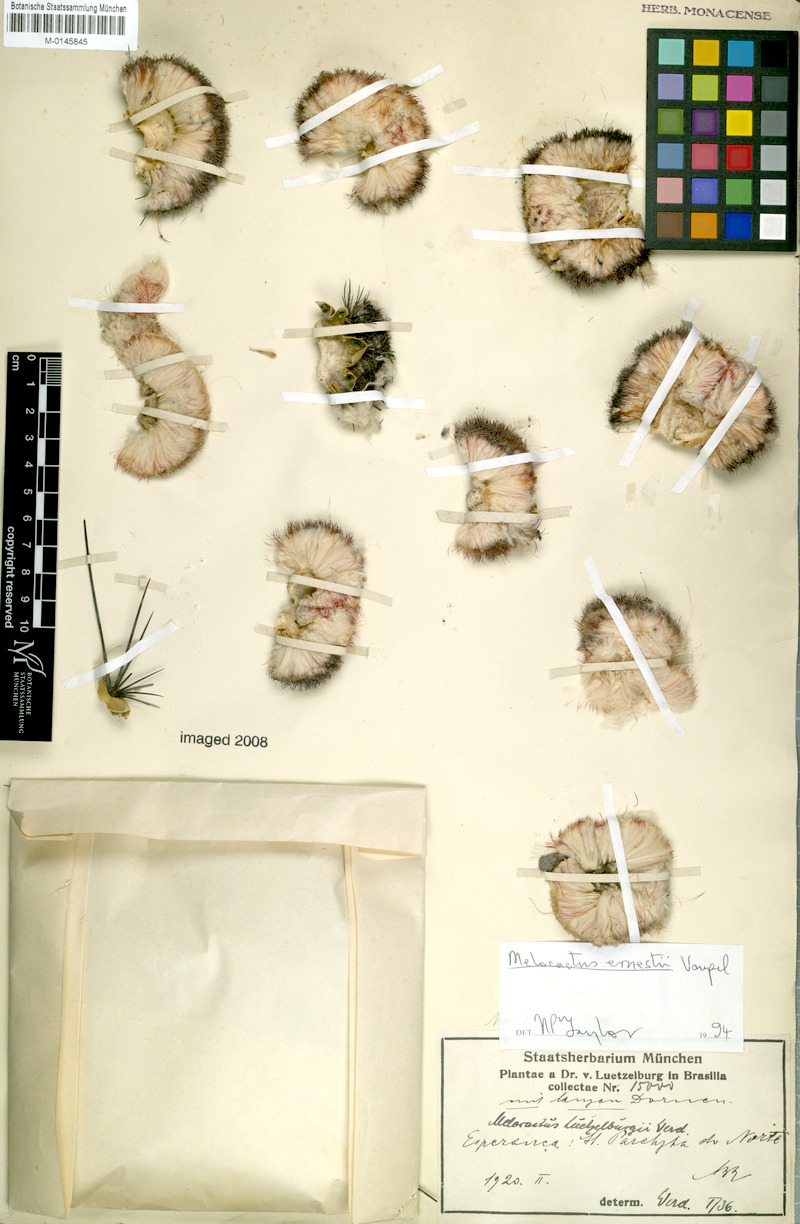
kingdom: Plantae
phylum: Tracheophyta
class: Magnoliopsida
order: Caryophyllales
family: Cactaceae
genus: Melocactus
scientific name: Melocactus ernestii
